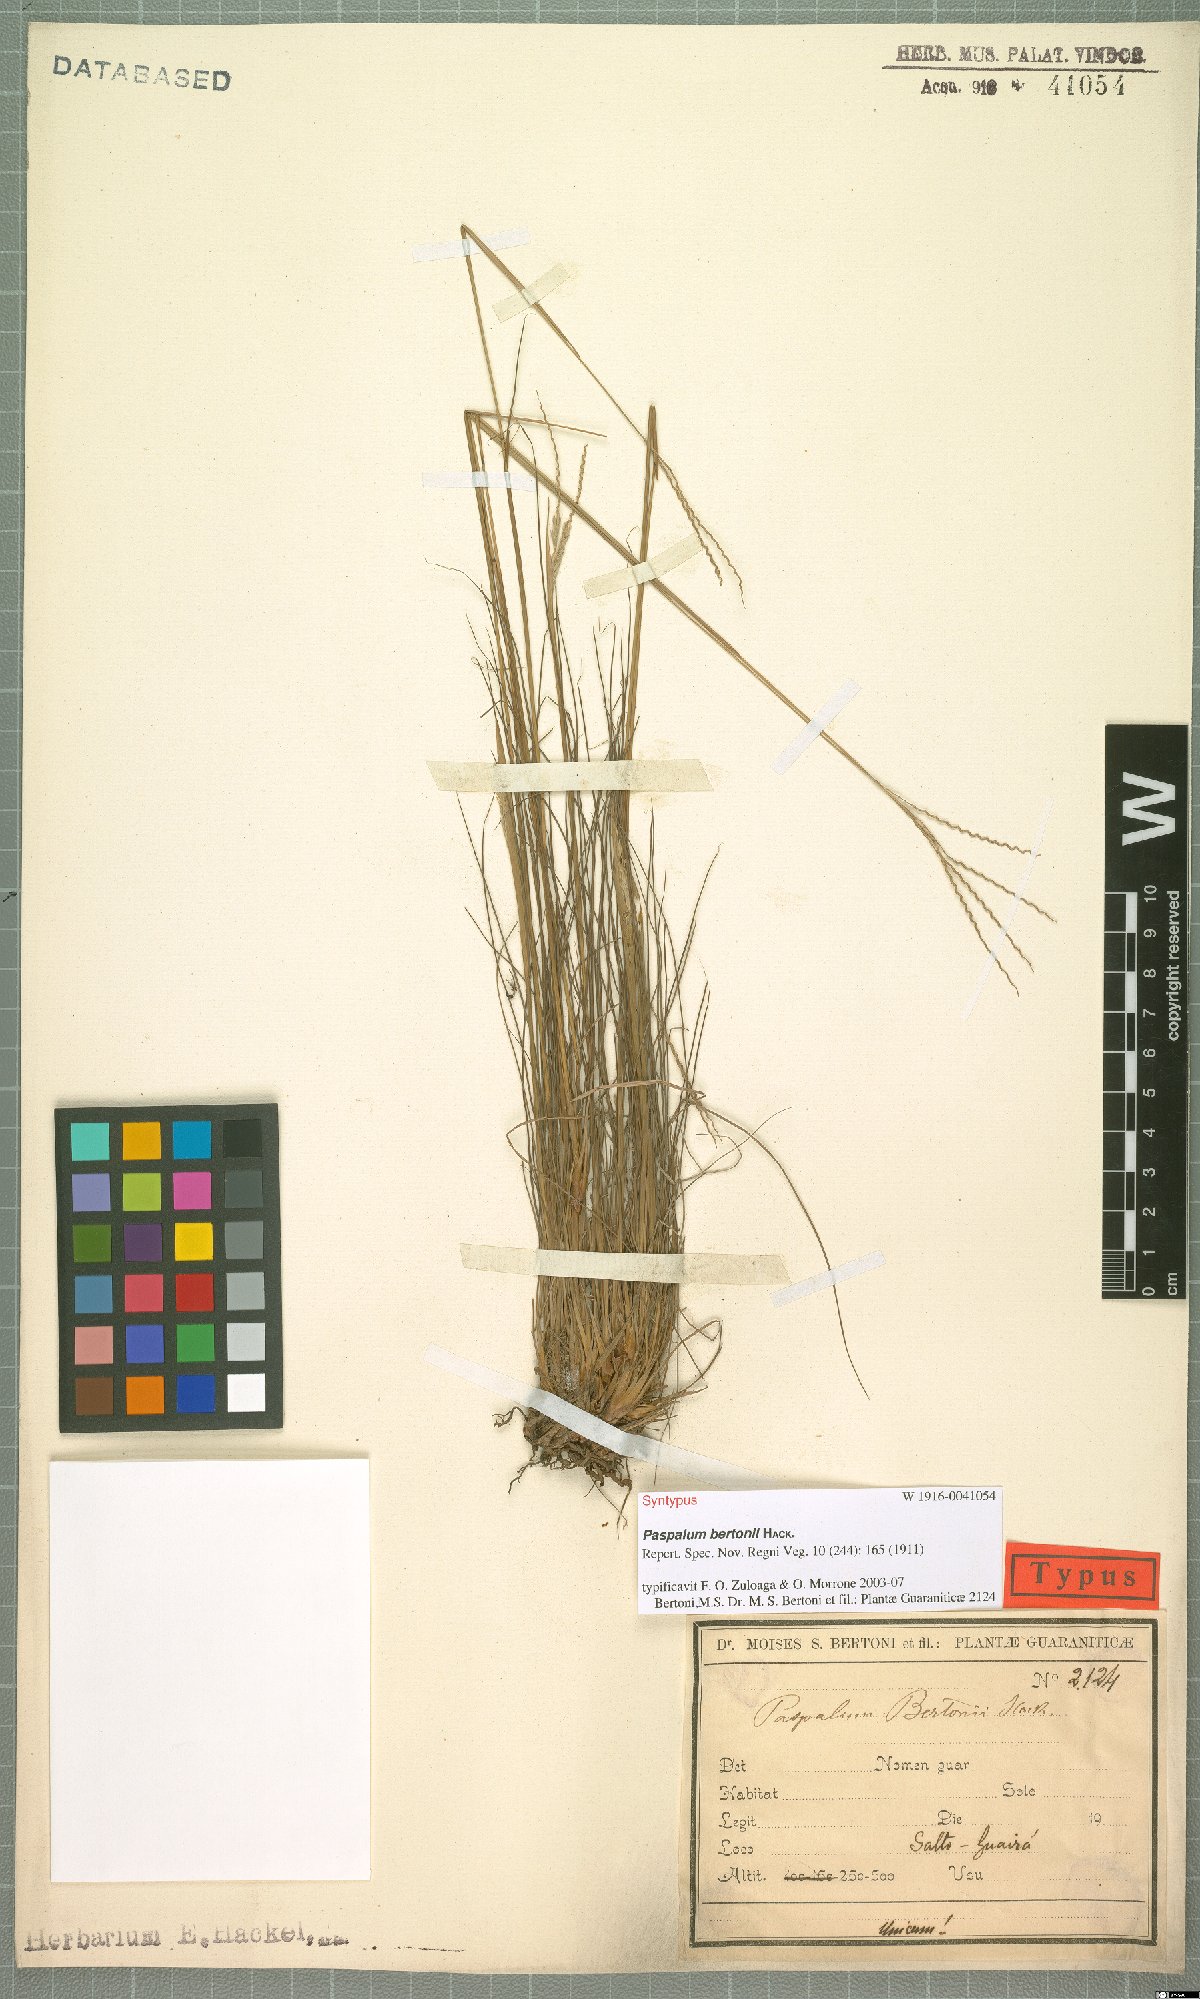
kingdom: Plantae
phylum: Tracheophyta
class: Liliopsida
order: Poales
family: Poaceae
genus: Paspalum
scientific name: Paspalum bertonii
